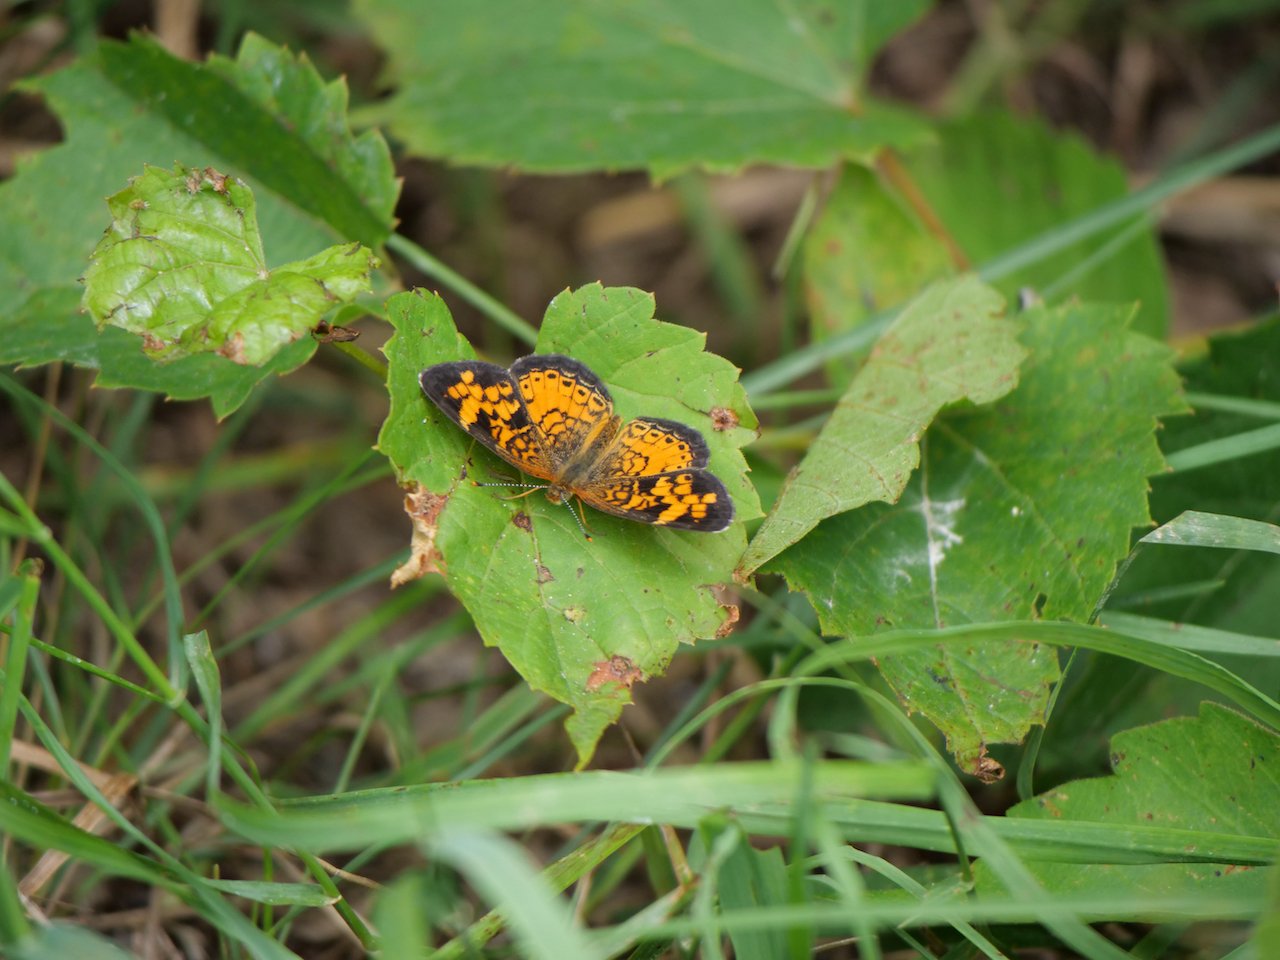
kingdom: Animalia
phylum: Arthropoda
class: Insecta
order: Lepidoptera
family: Nymphalidae
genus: Phyciodes
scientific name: Phyciodes tharos
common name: Northern Crescent
